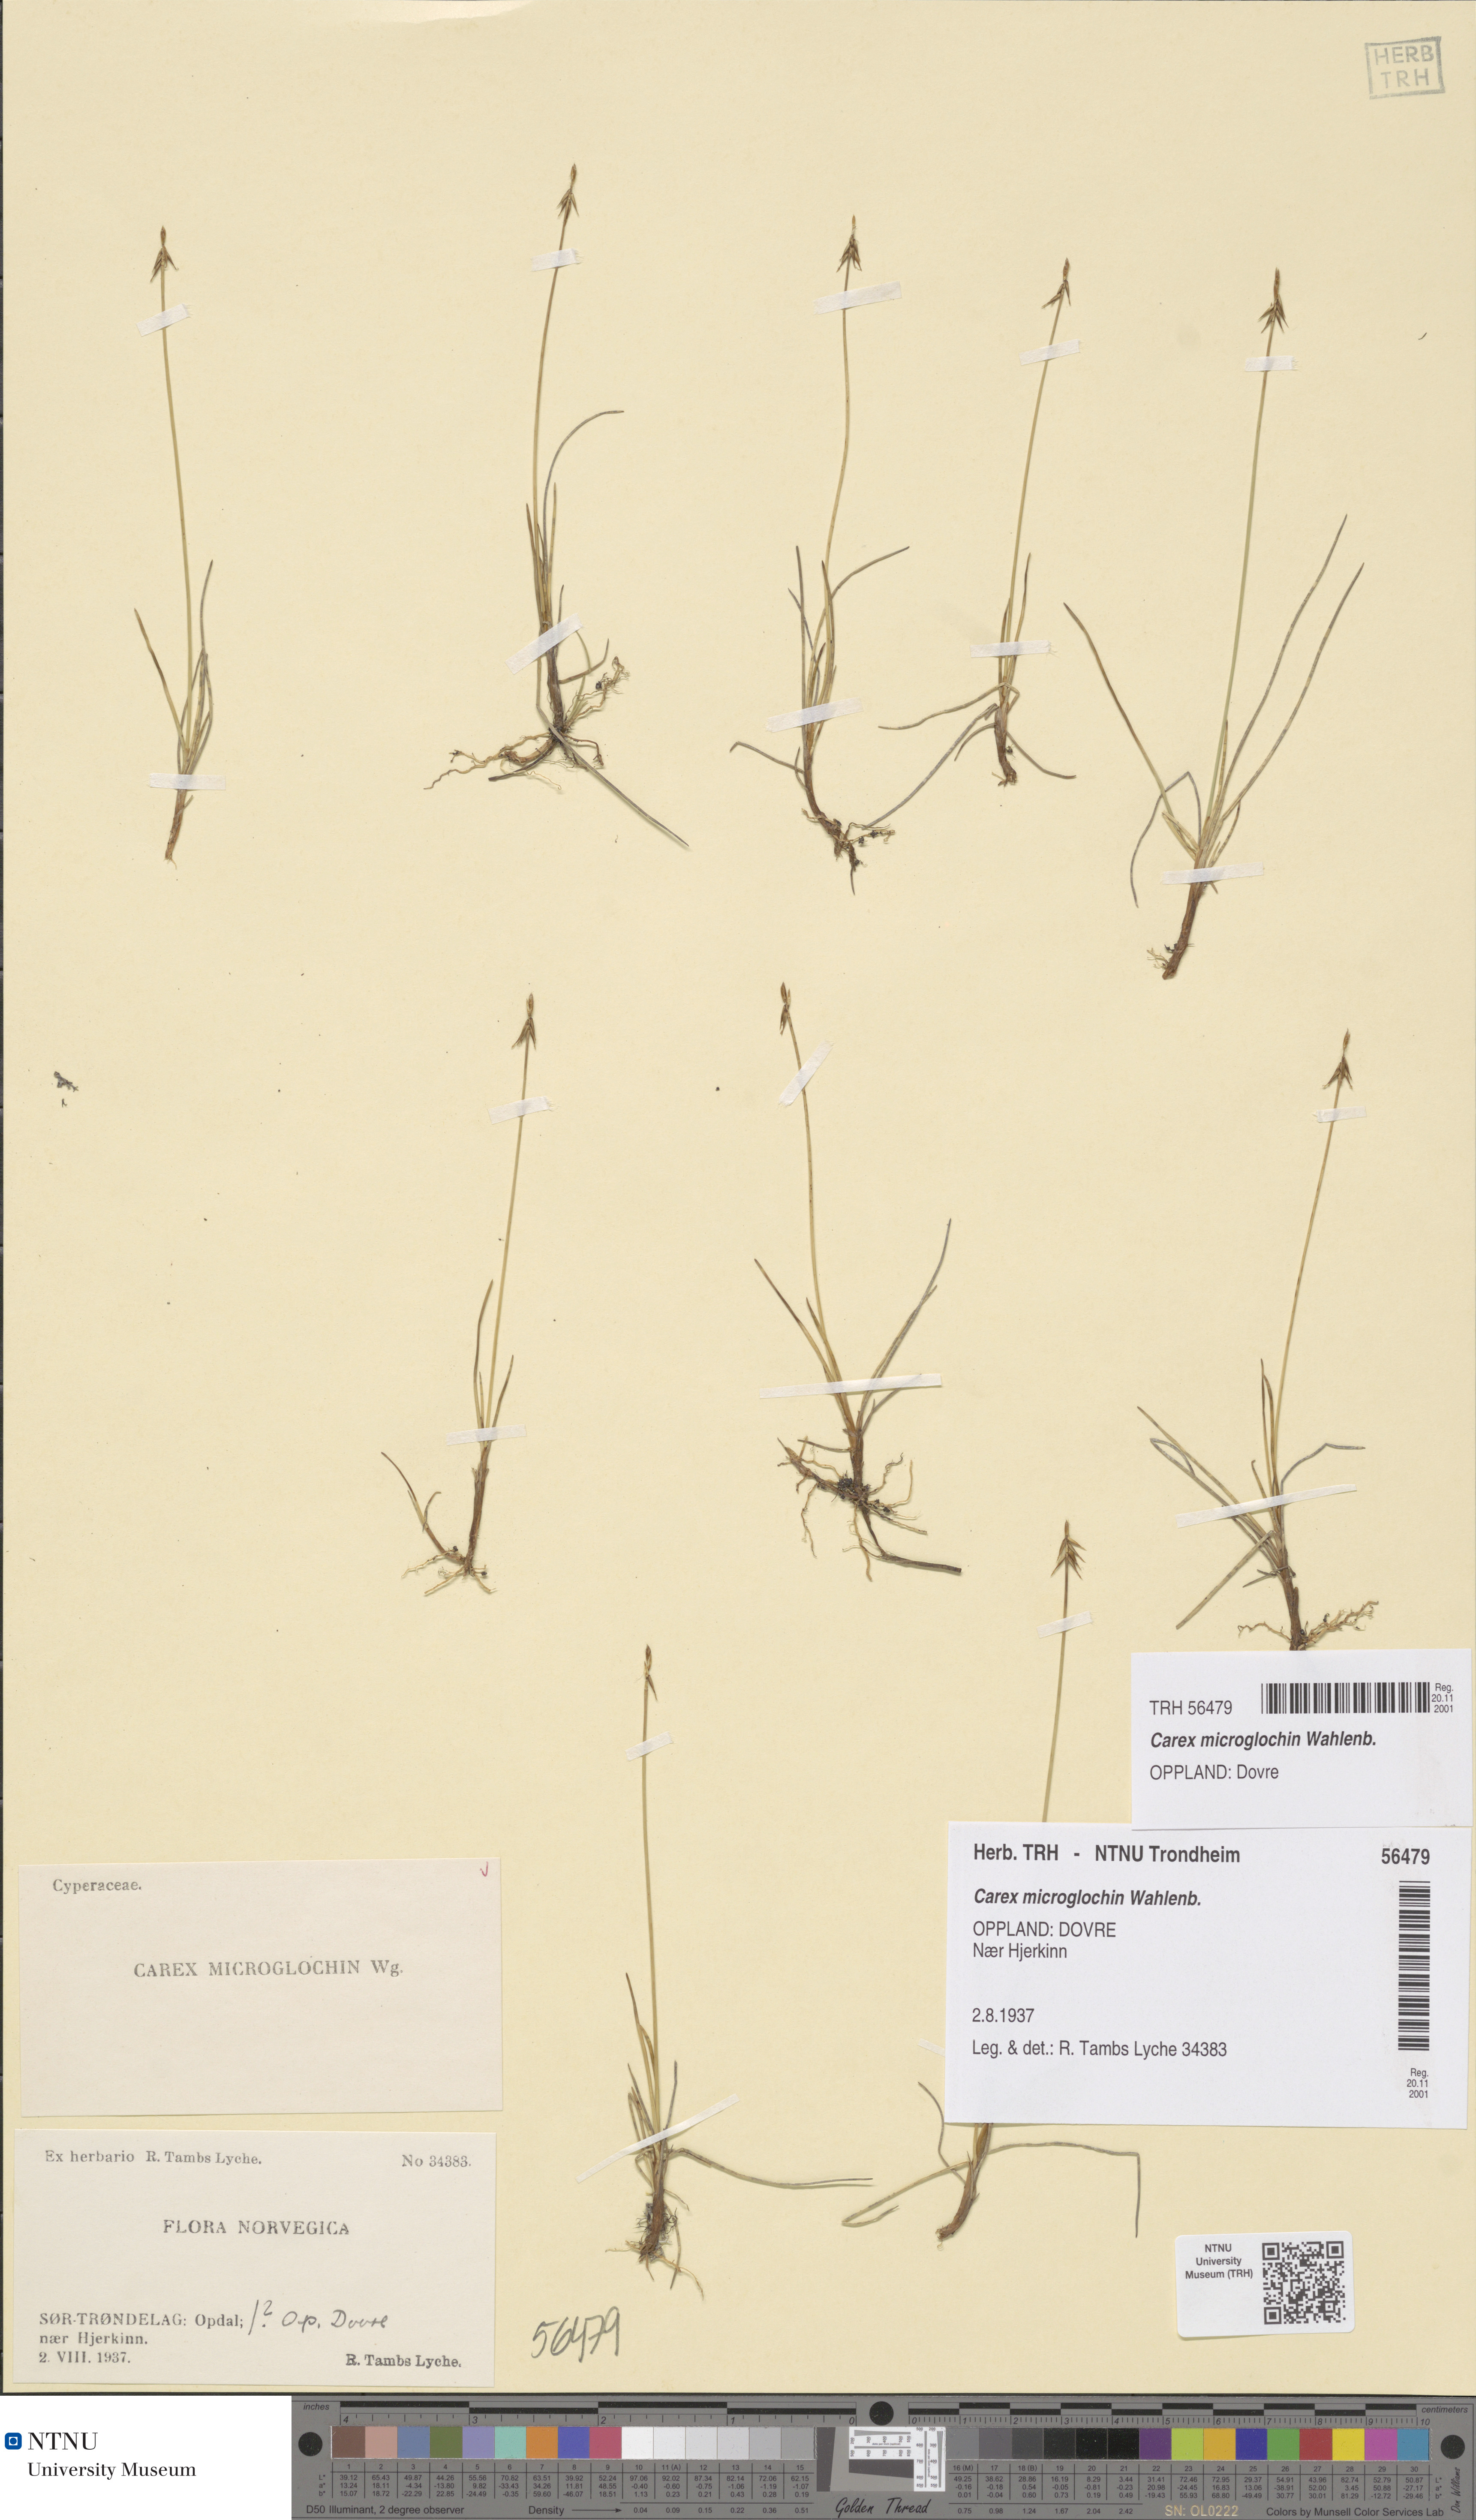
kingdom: Plantae
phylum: Tracheophyta
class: Liliopsida
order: Poales
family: Cyperaceae
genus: Carex
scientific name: Carex microglochin
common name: Bristle sedge
